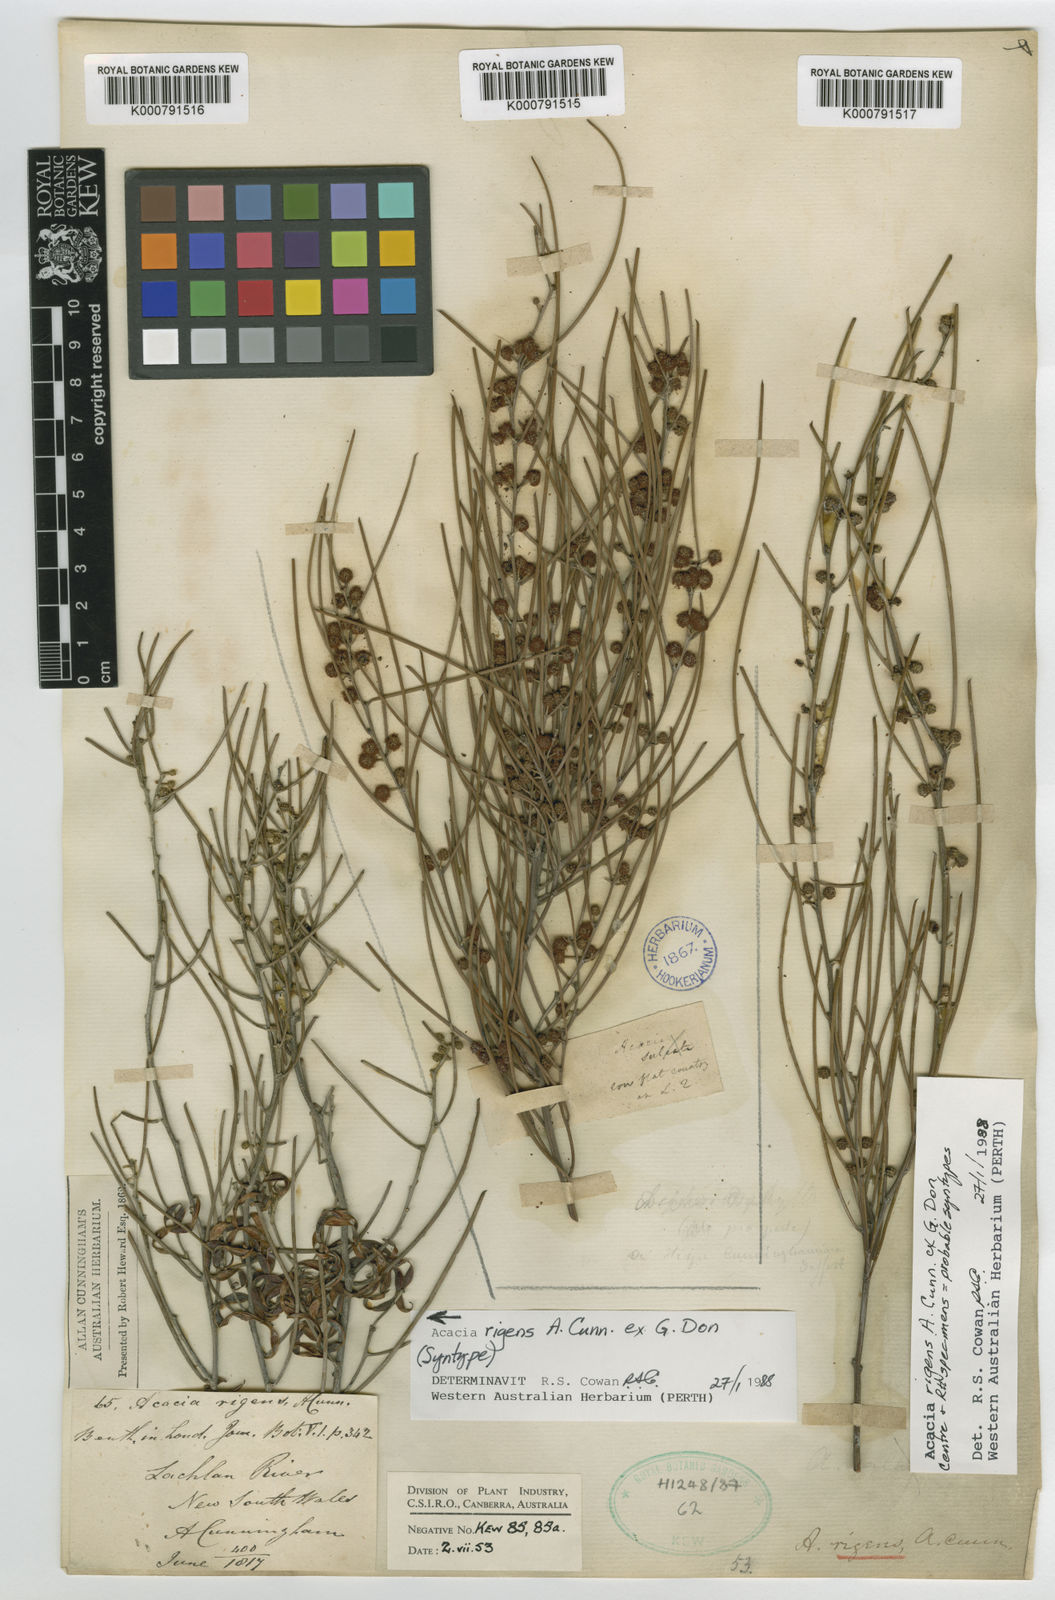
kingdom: Plantae
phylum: Tracheophyta
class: Magnoliopsida
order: Fabales
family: Fabaceae
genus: Acacia
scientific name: Acacia rigens
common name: Nealie
